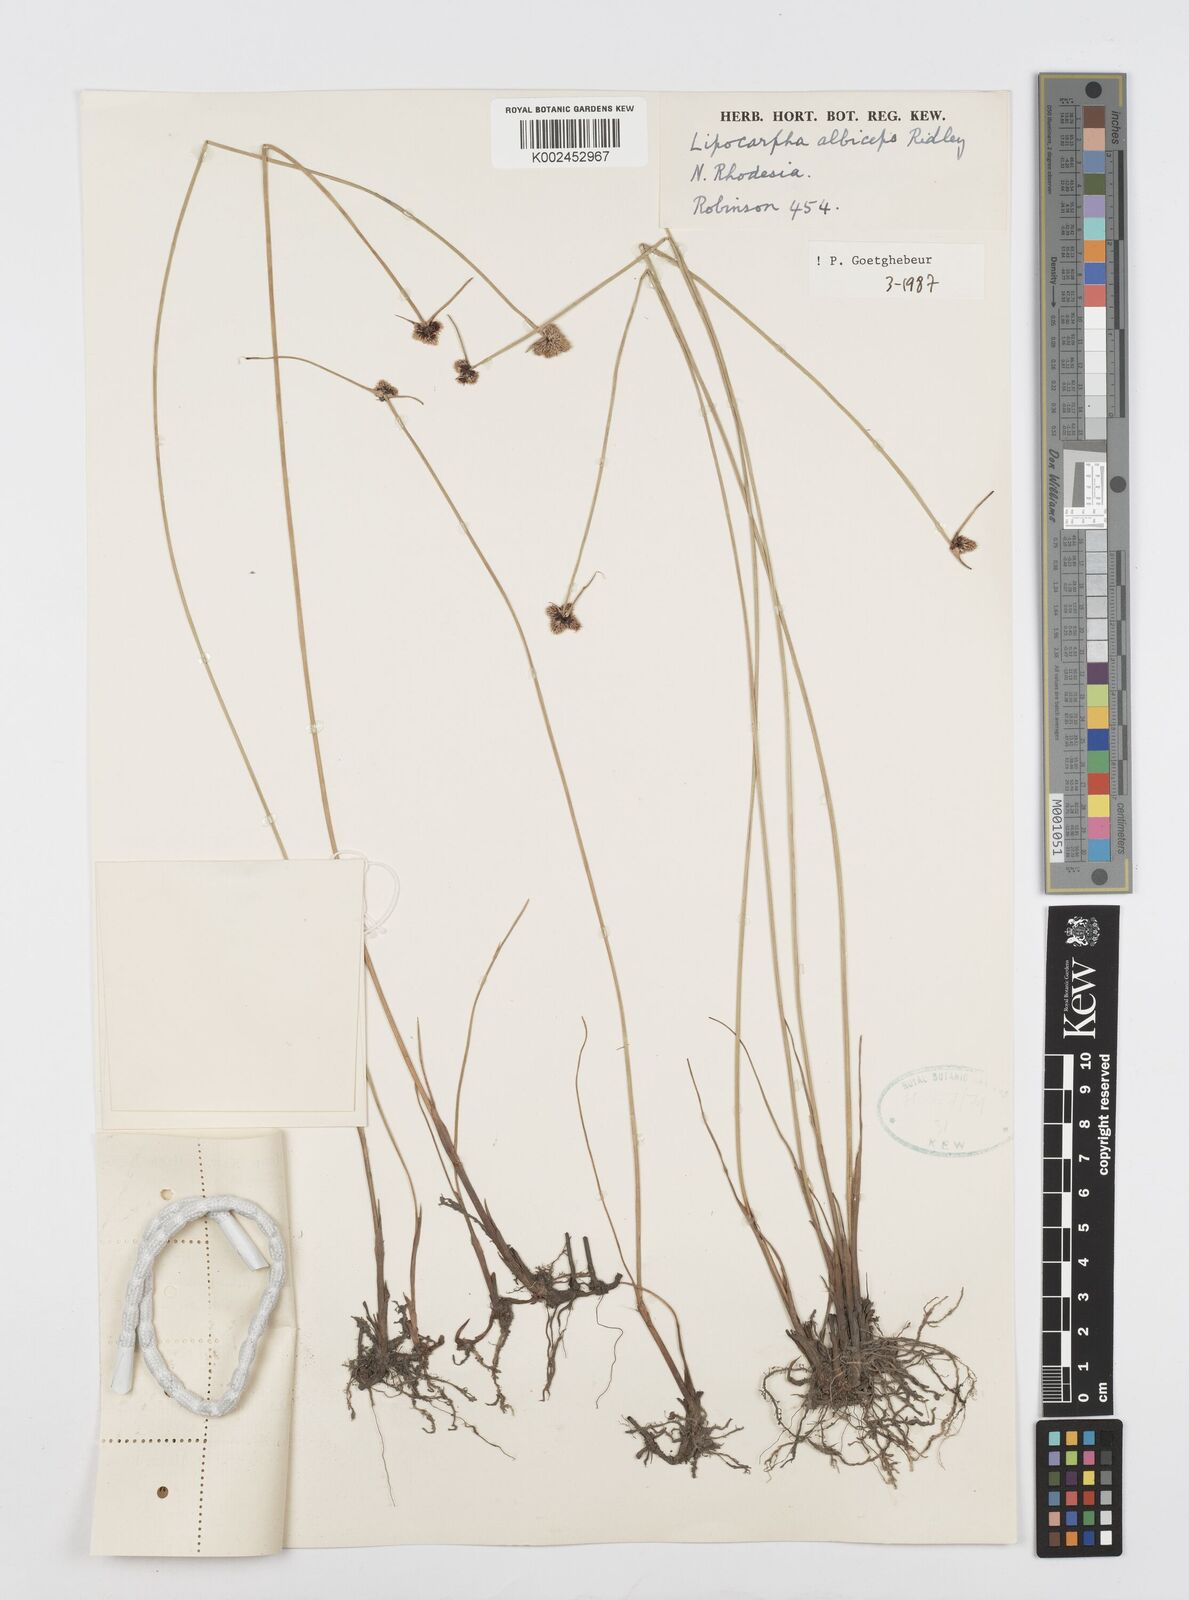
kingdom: Plantae
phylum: Tracheophyta
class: Liliopsida
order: Poales
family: Cyperaceae
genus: Cyperus
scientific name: Cyperus albiceps
